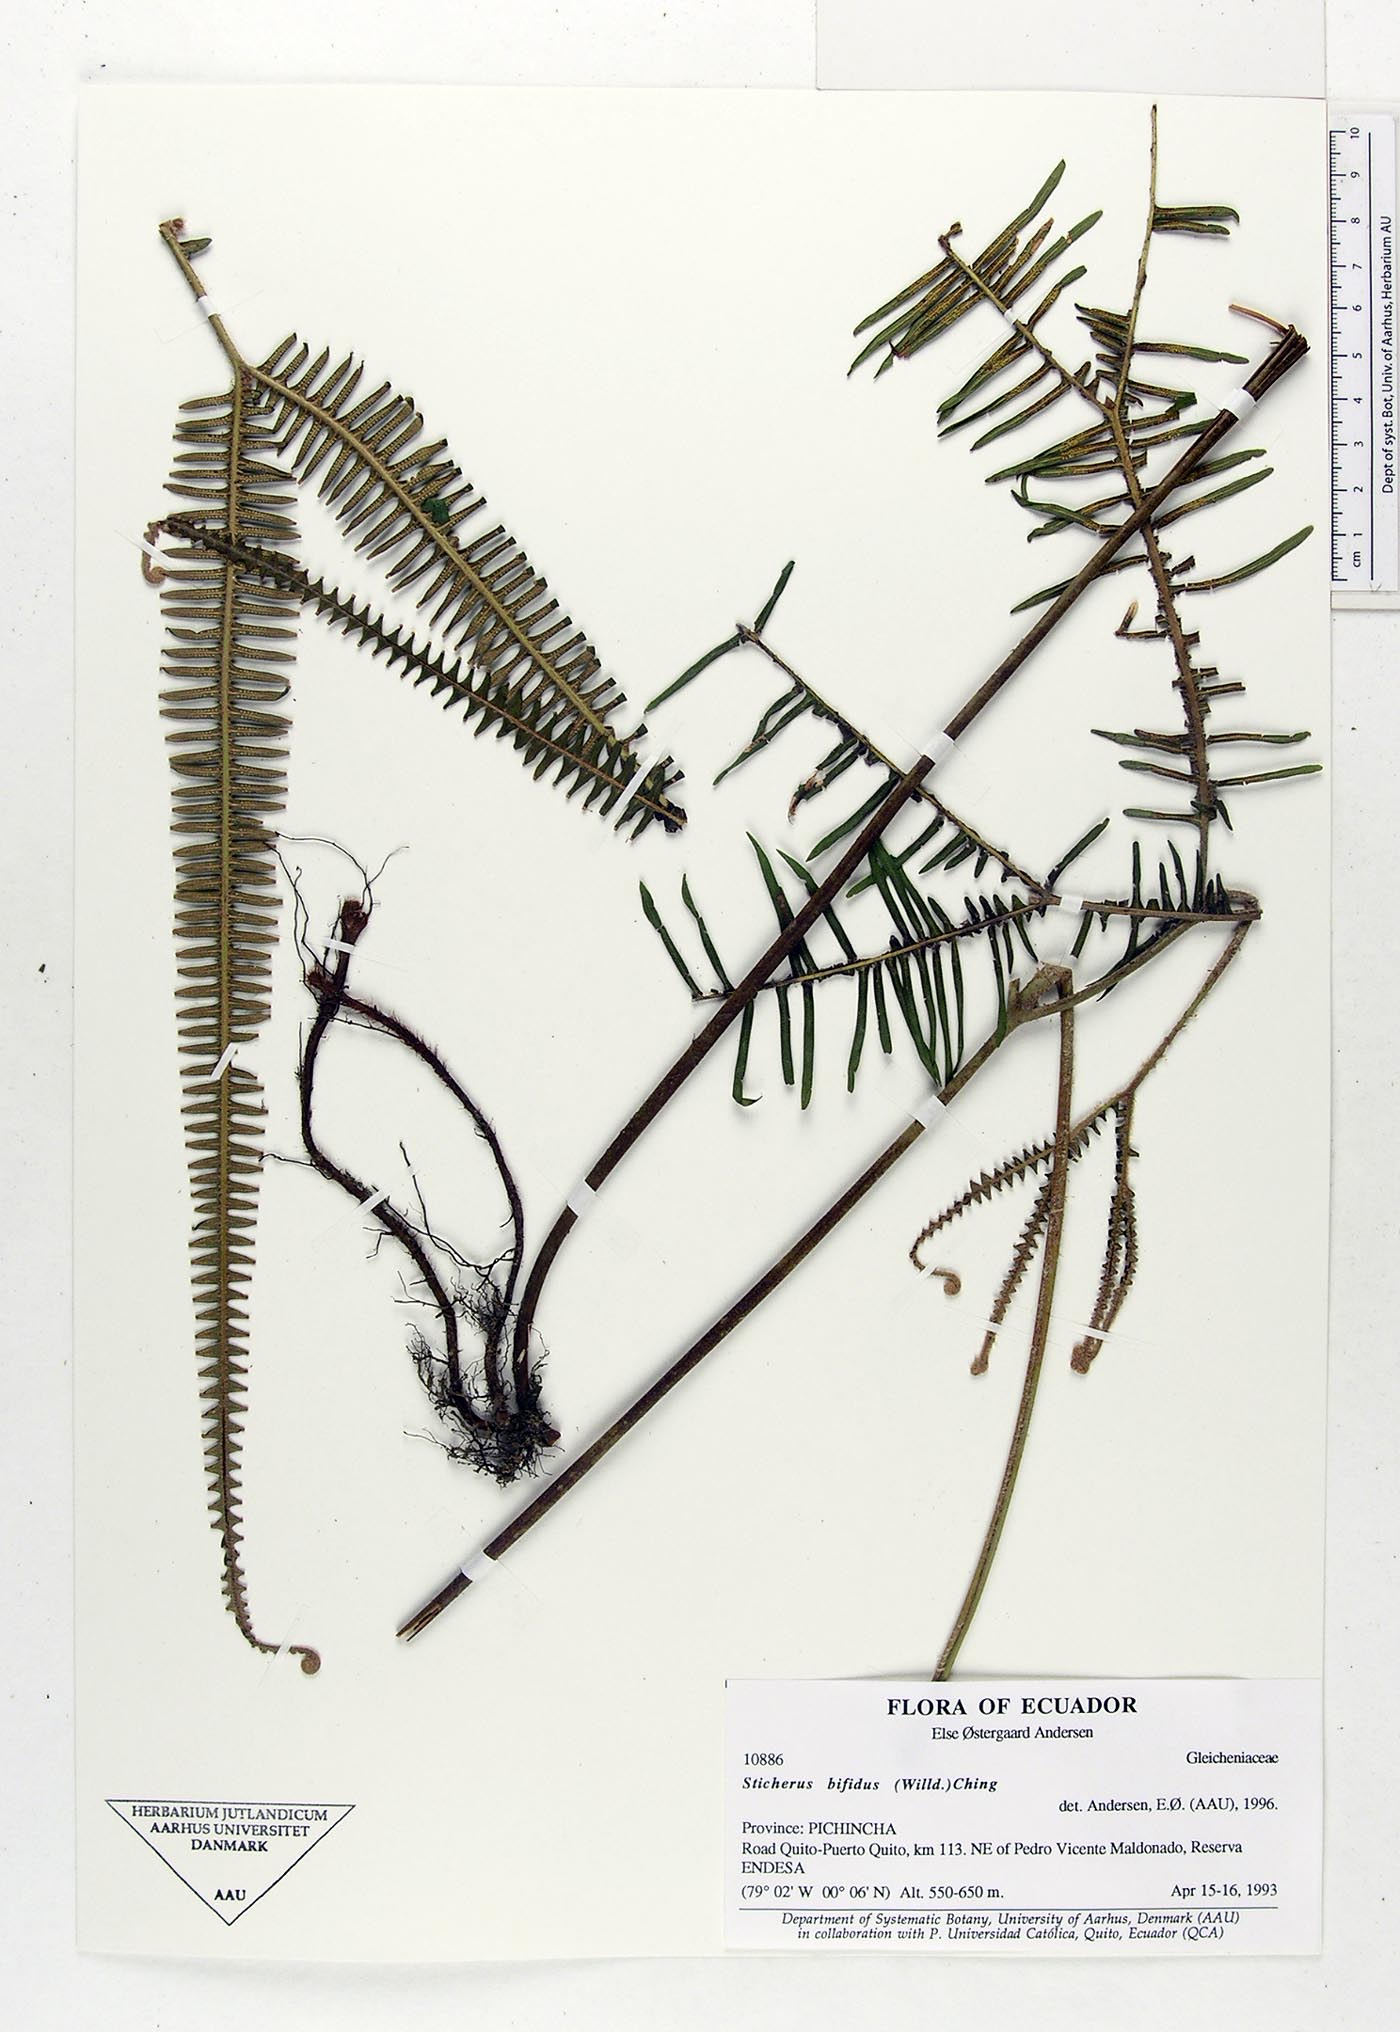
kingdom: Plantae
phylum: Tracheophyta
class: Polypodiopsida
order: Gleicheniales
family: Gleicheniaceae
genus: Sticherus
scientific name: Sticherus bifidus
